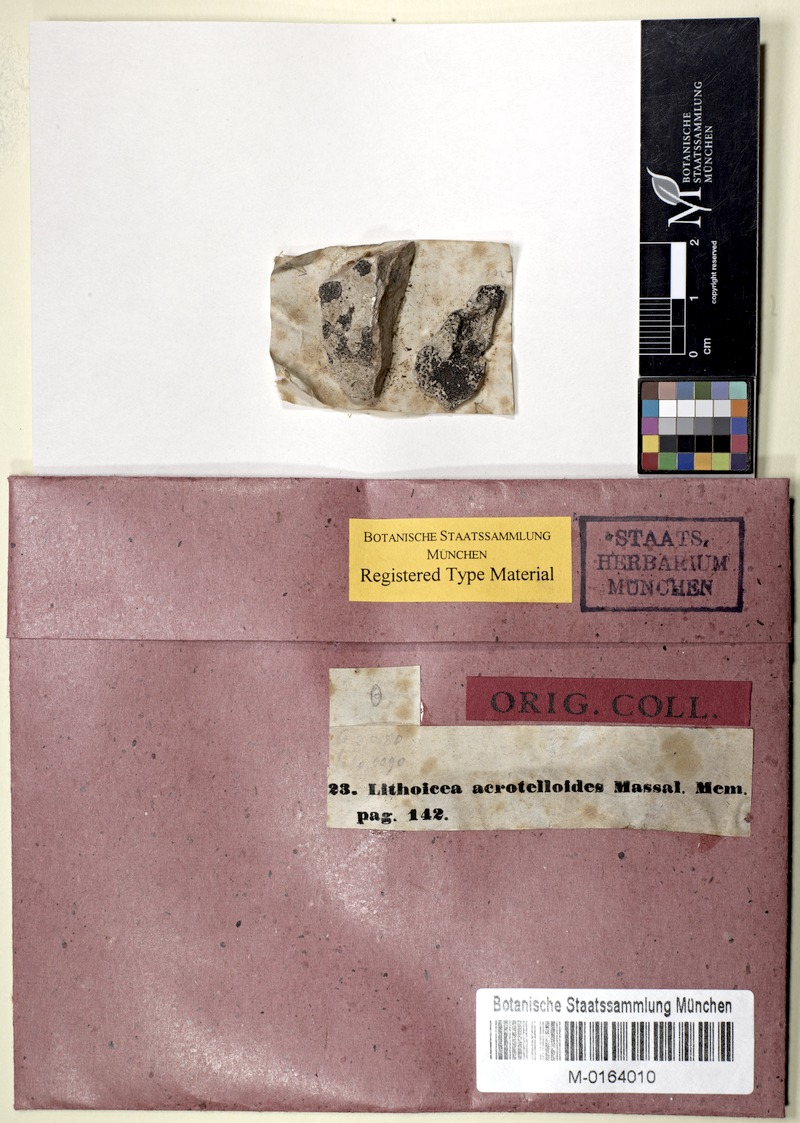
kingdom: Fungi
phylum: Ascomycota
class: Eurotiomycetes
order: Verrucariales
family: Verrucariaceae
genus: Verrucaria
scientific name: Verrucaria acrotelloides
